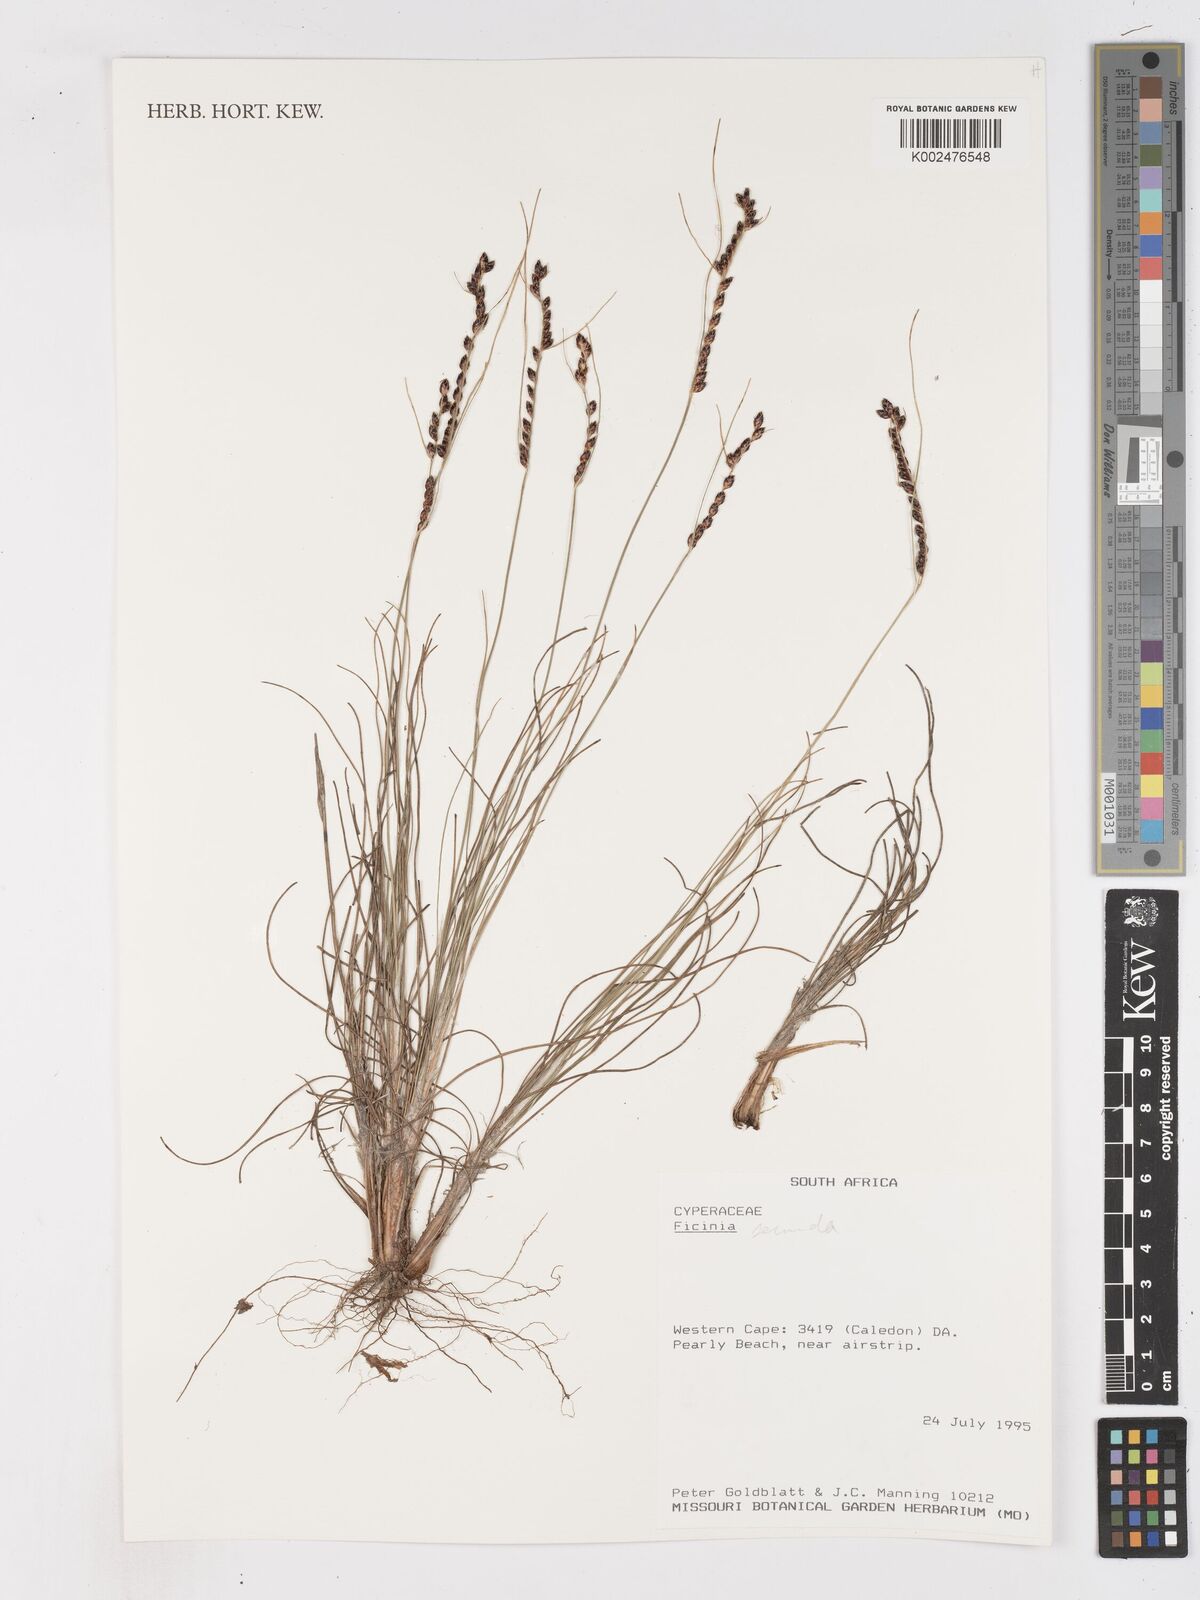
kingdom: Plantae
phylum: Tracheophyta
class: Liliopsida
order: Poales
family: Cyperaceae
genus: Ficinia
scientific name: Ficinia
